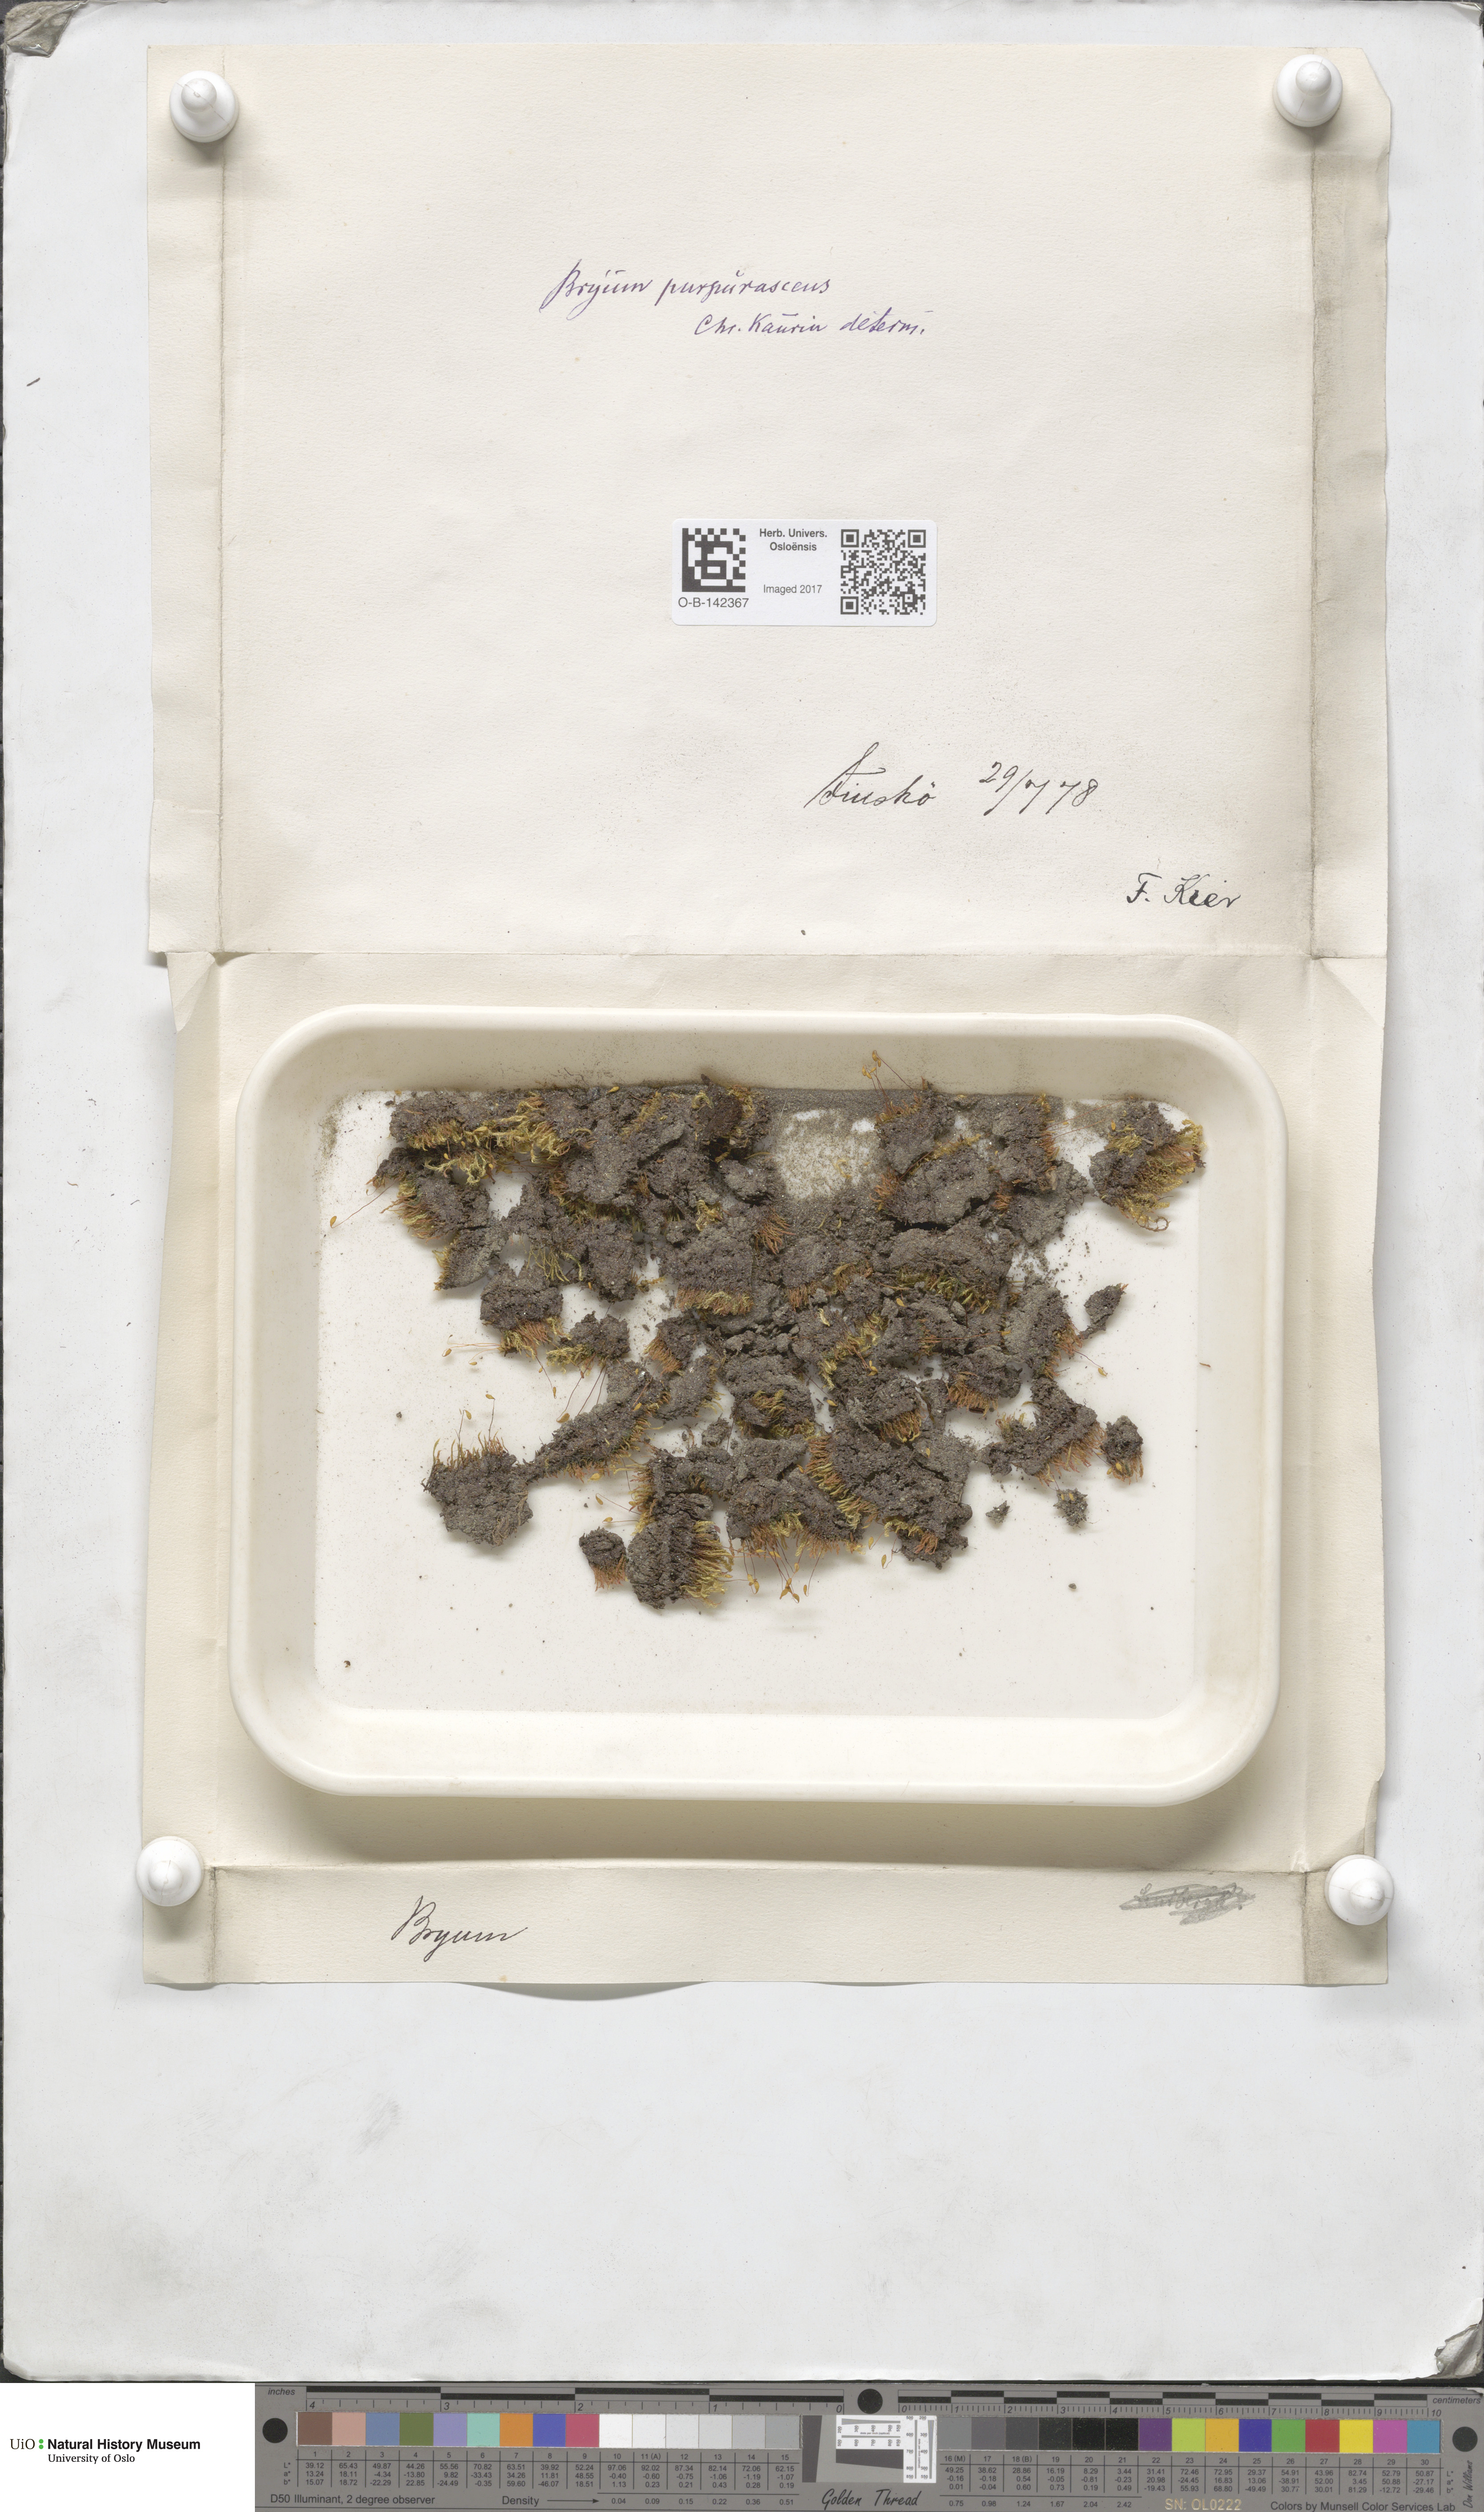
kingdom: Plantae
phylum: Bryophyta
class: Bryopsida
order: Bryales
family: Bryaceae
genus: Ptychostomum
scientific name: Ptychostomum arcticum
